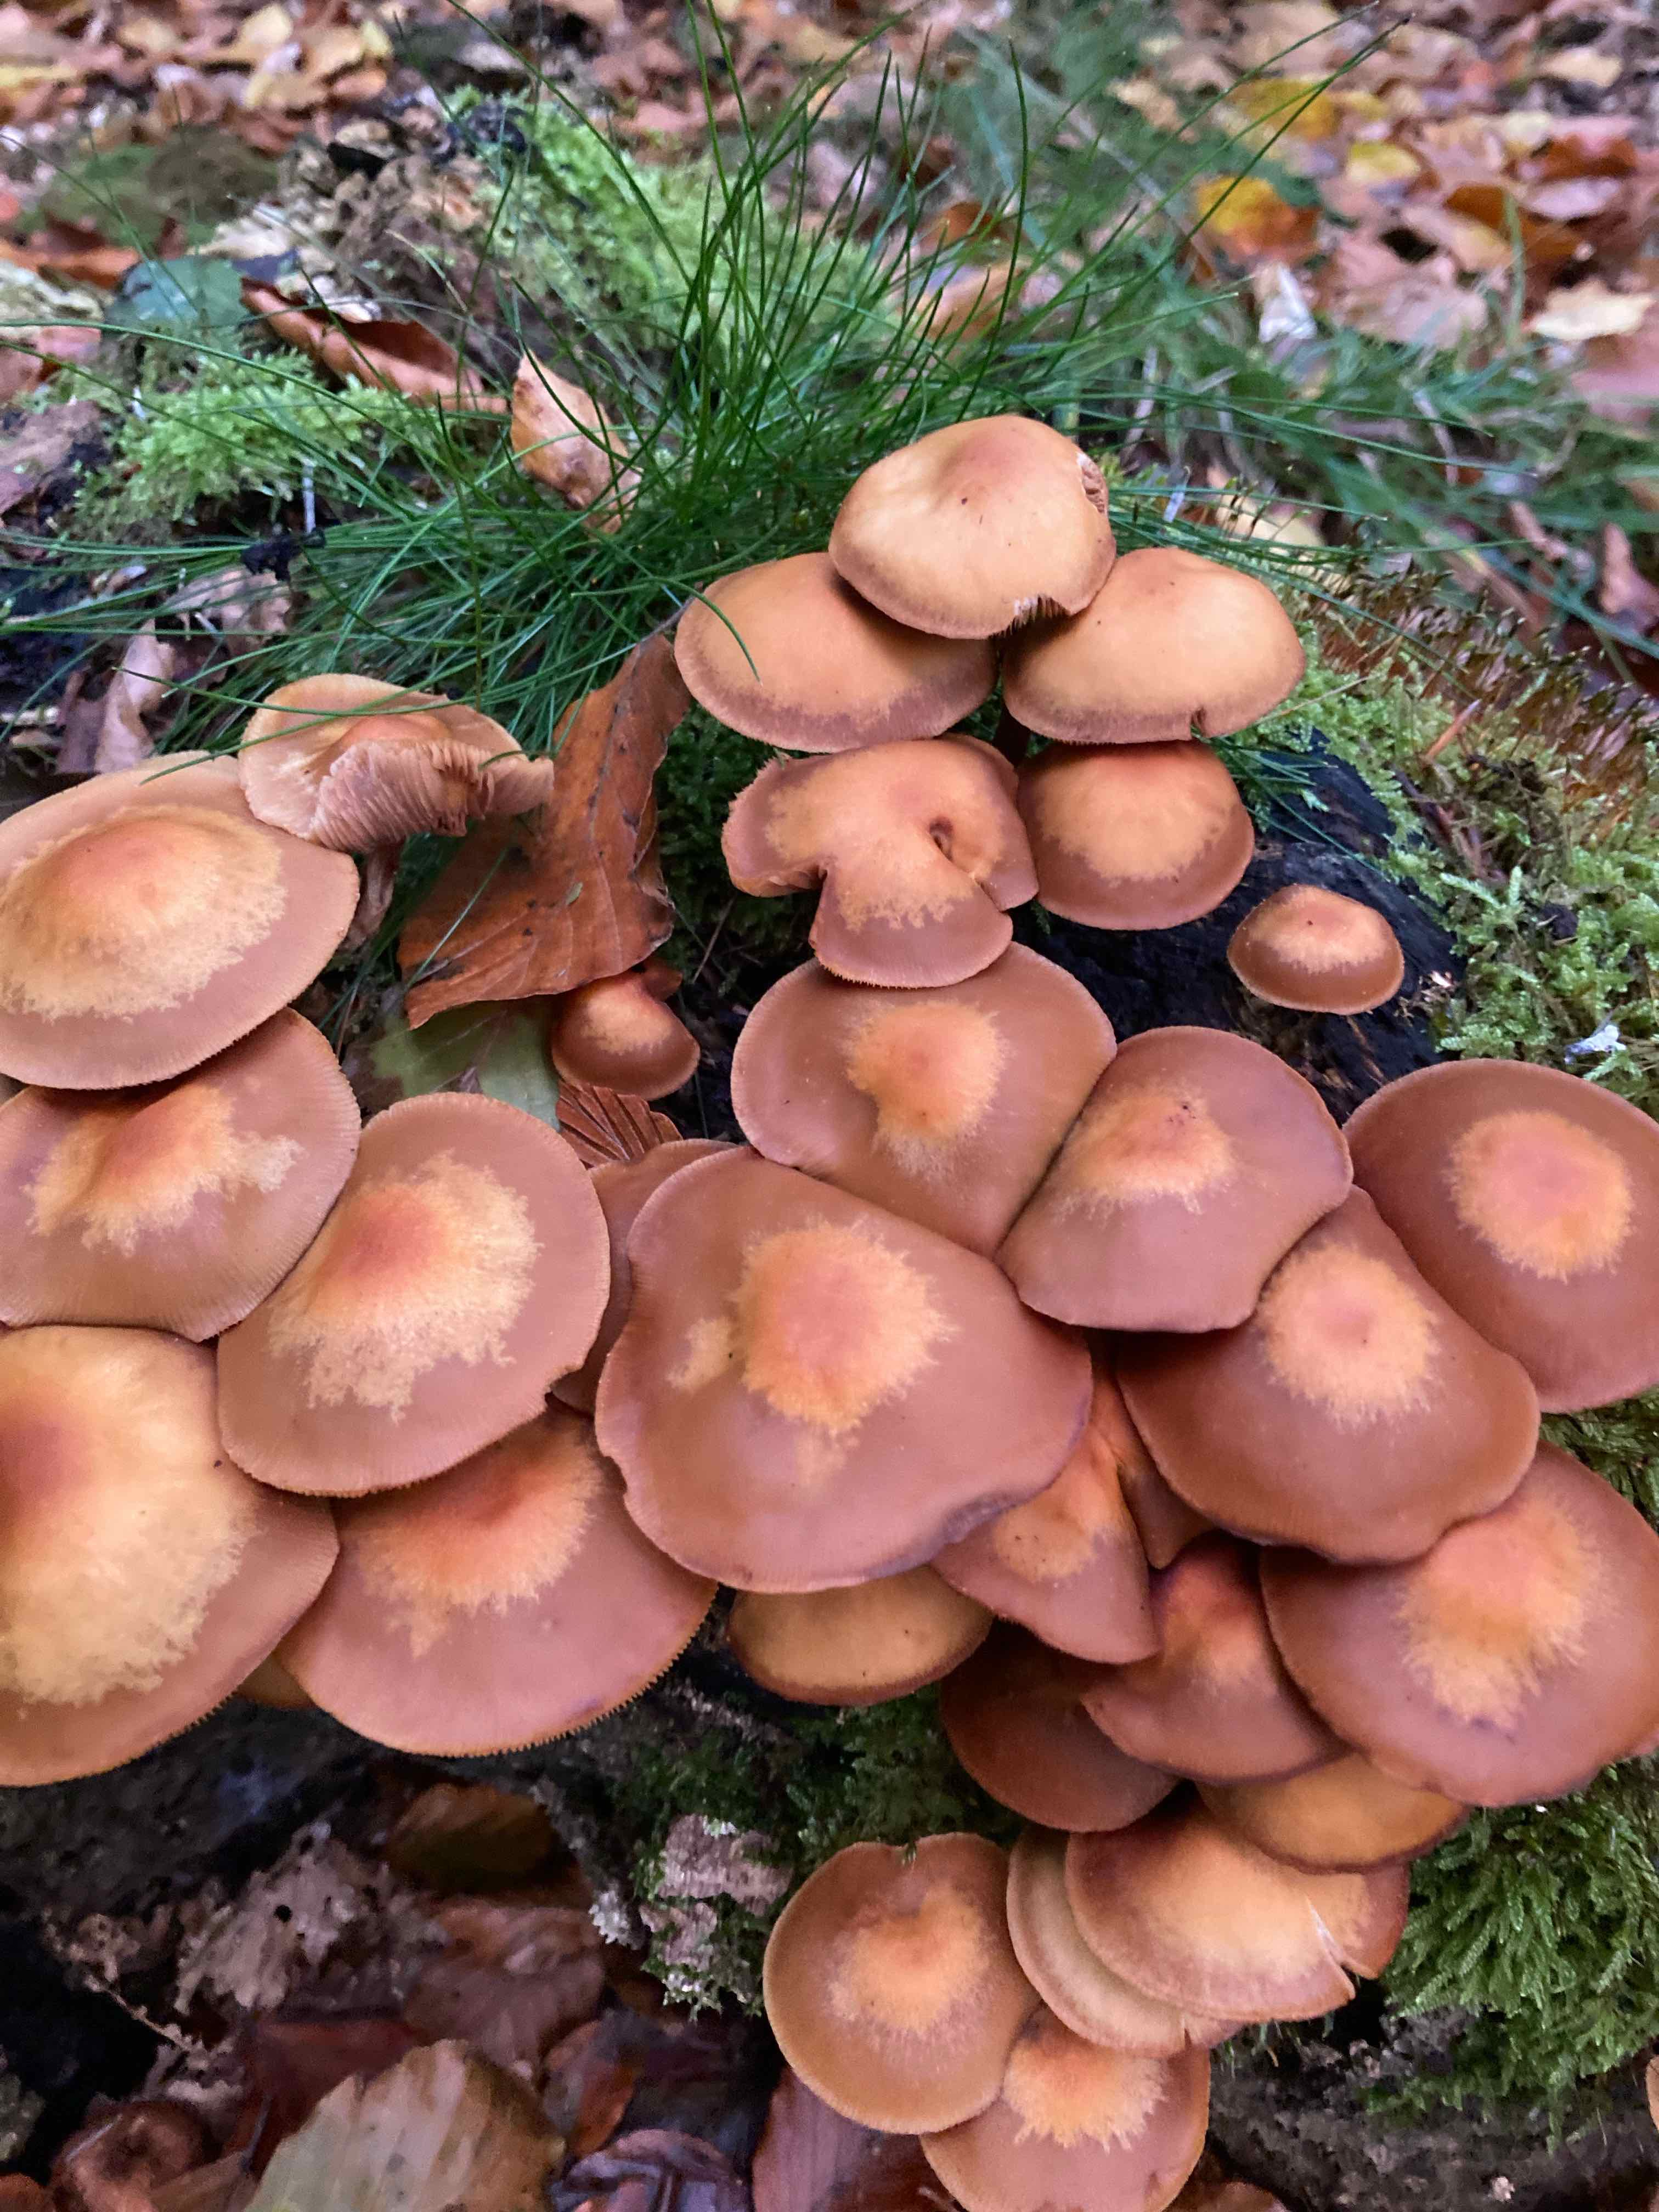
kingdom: Fungi
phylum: Basidiomycota
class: Agaricomycetes
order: Agaricales
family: Strophariaceae
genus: Kuehneromyces
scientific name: Kuehneromyces mutabilis
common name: foranderlig skælhat
